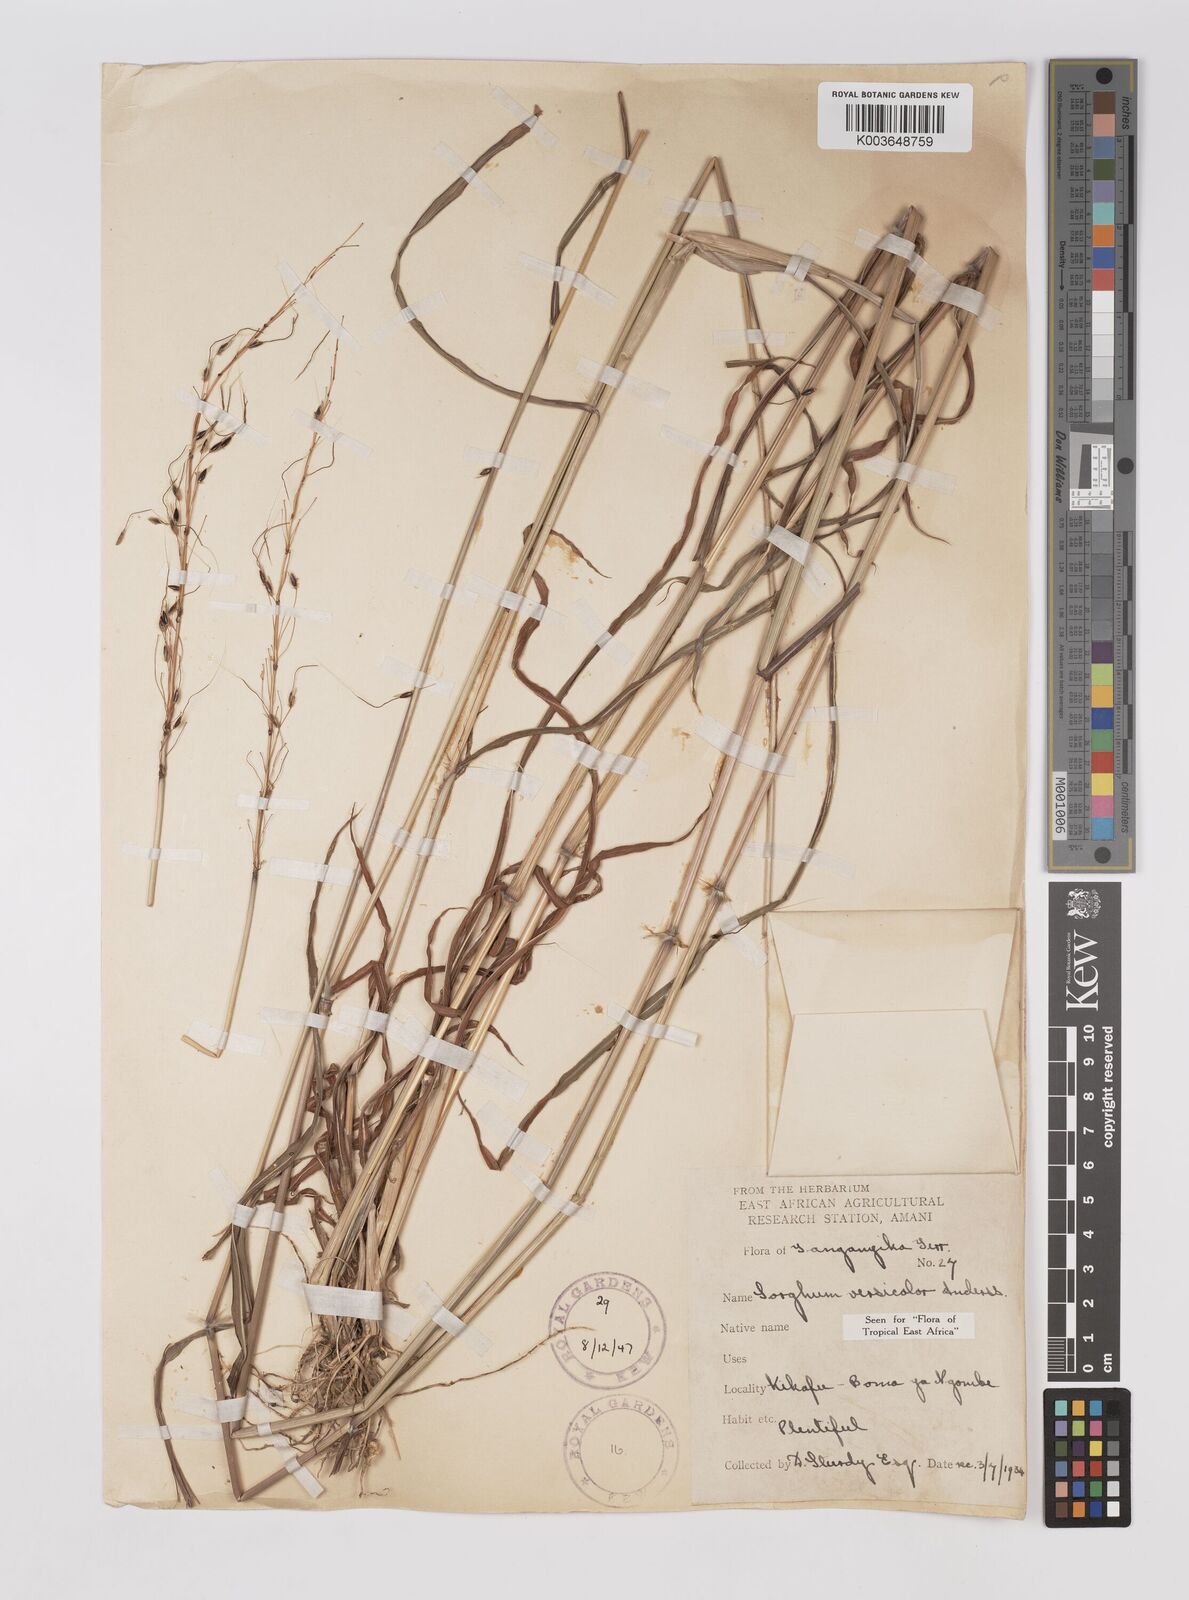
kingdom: Plantae
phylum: Tracheophyta
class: Liliopsida
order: Poales
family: Poaceae
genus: Sarga
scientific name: Sarga versicolor
